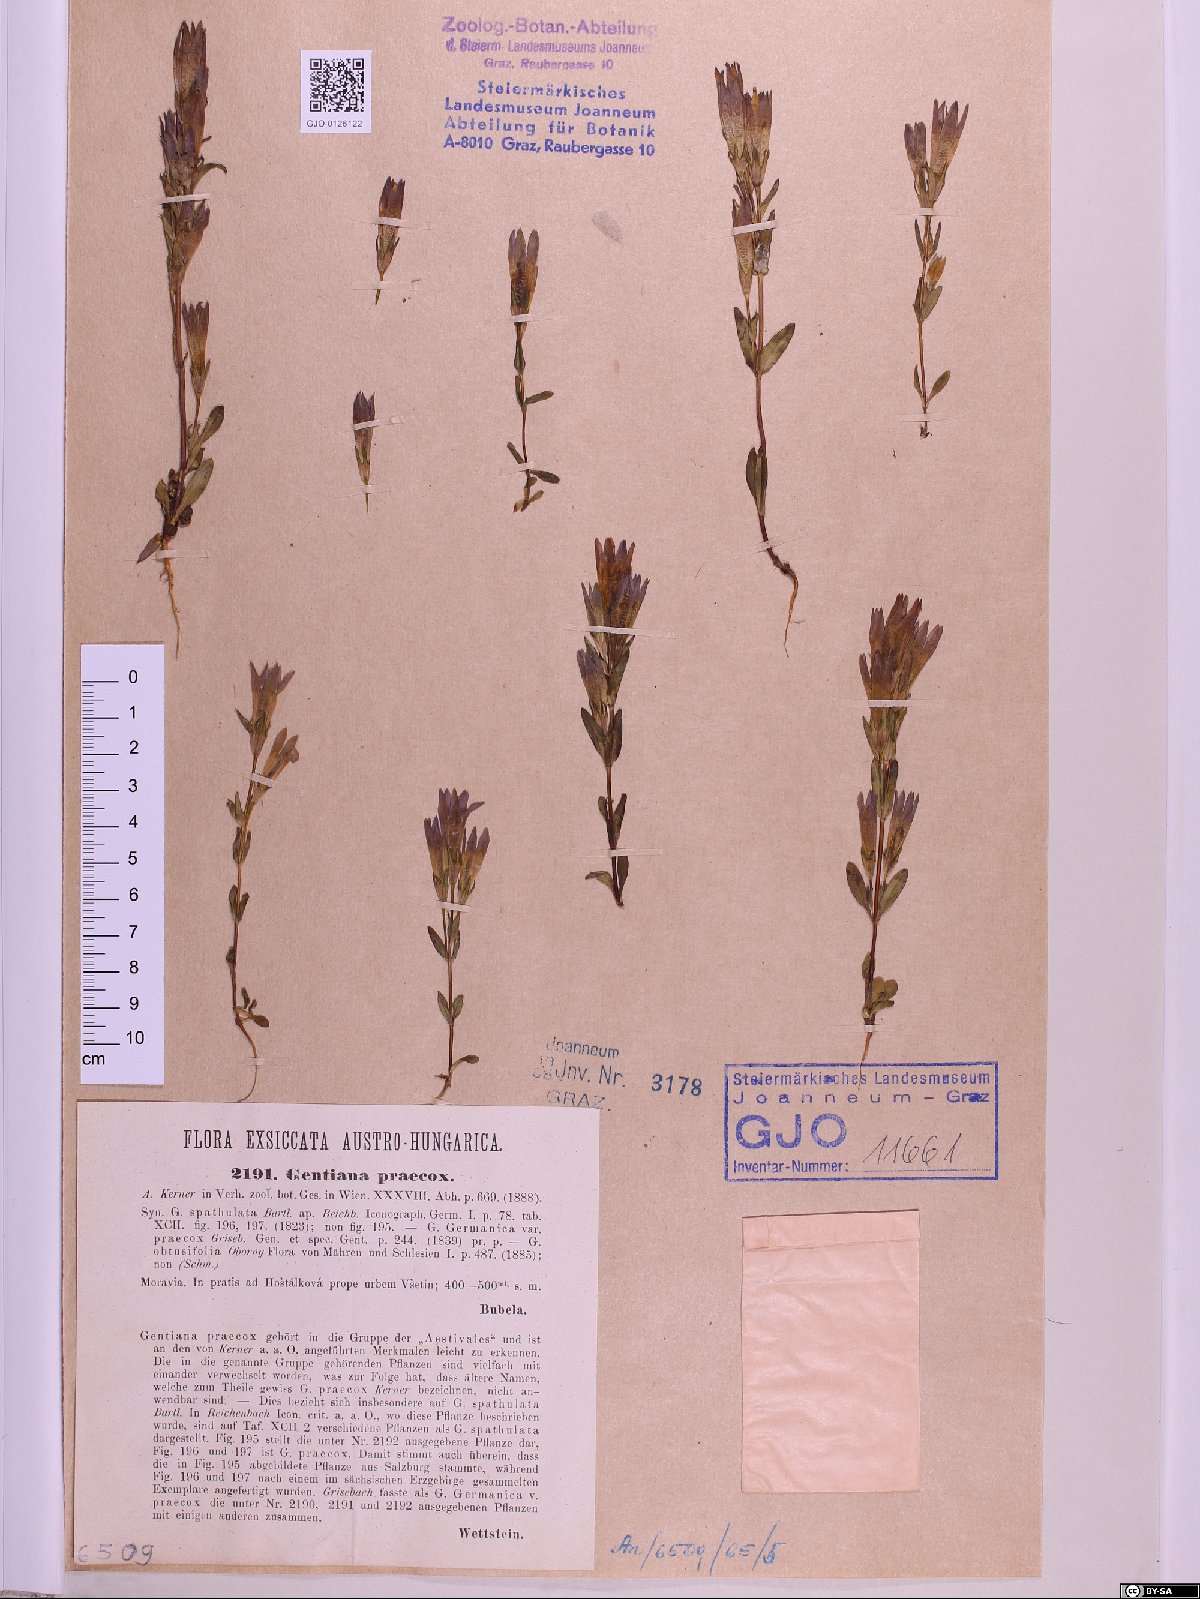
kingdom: Plantae
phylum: Tracheophyta
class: Magnoliopsida
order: Gentianales
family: Gentianaceae
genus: Gentianella
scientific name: Gentianella praecox
